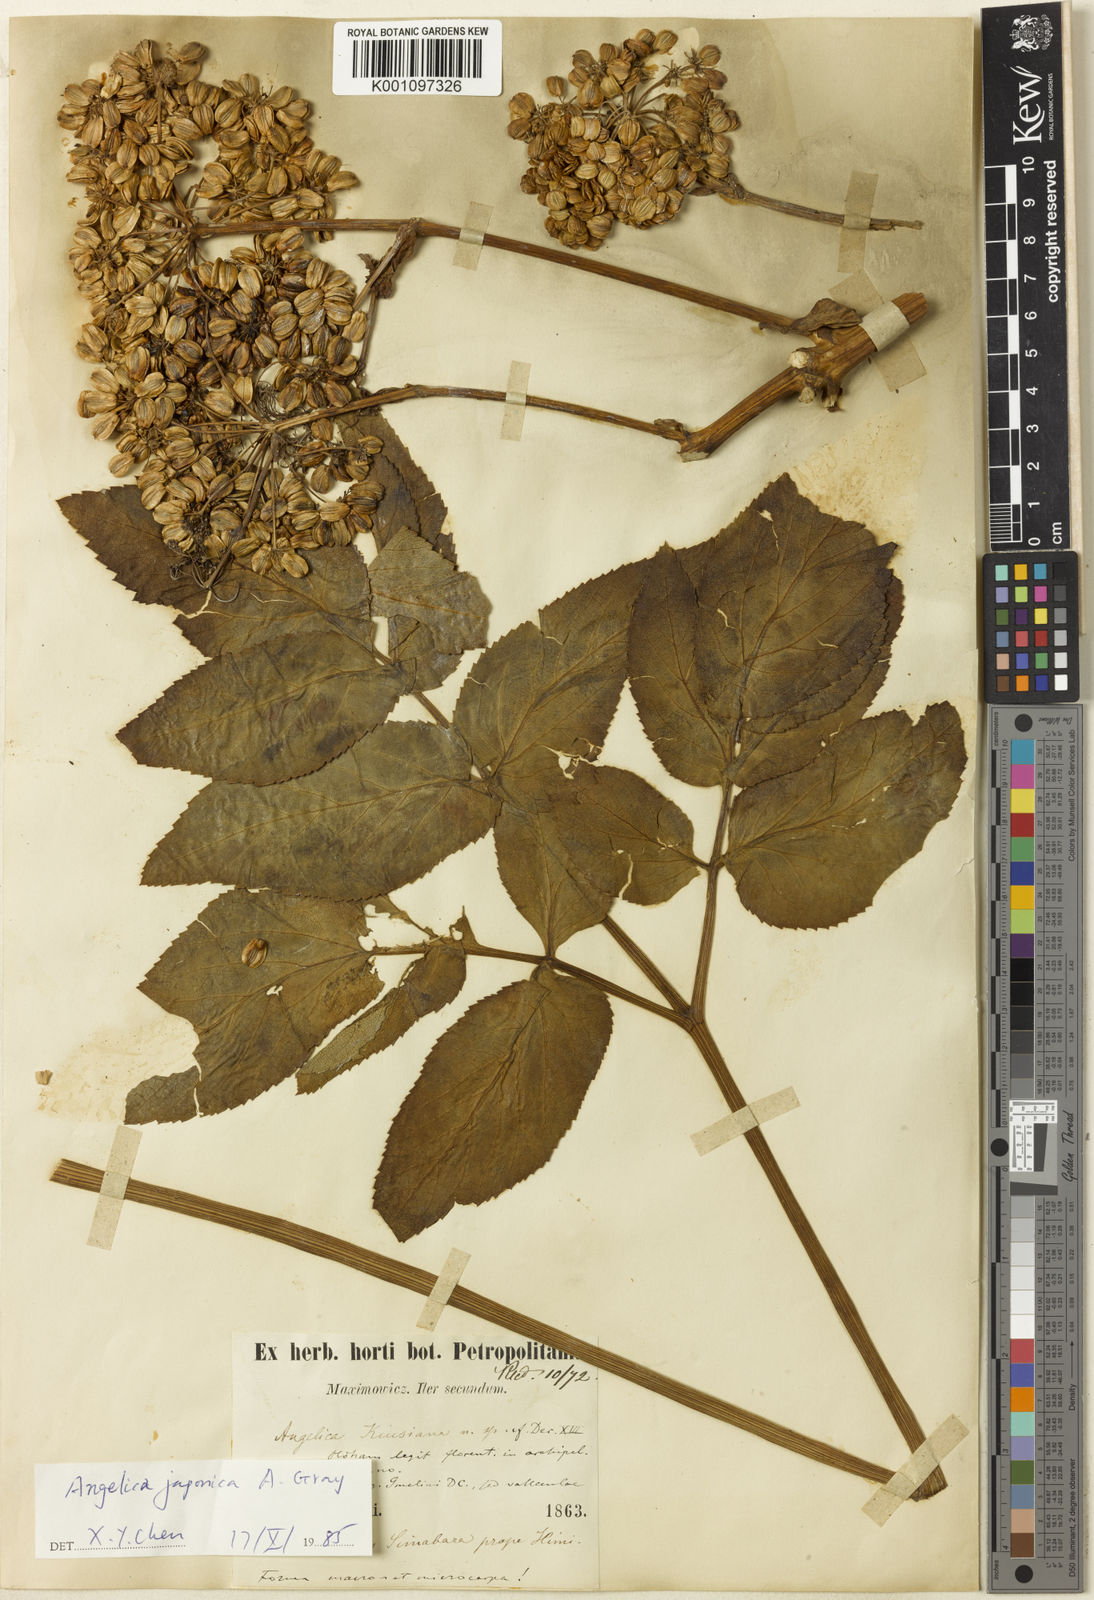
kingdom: Plantae
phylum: Tracheophyta
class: Magnoliopsida
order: Apiales
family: Apiaceae
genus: Angelica
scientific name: Angelica japonica
